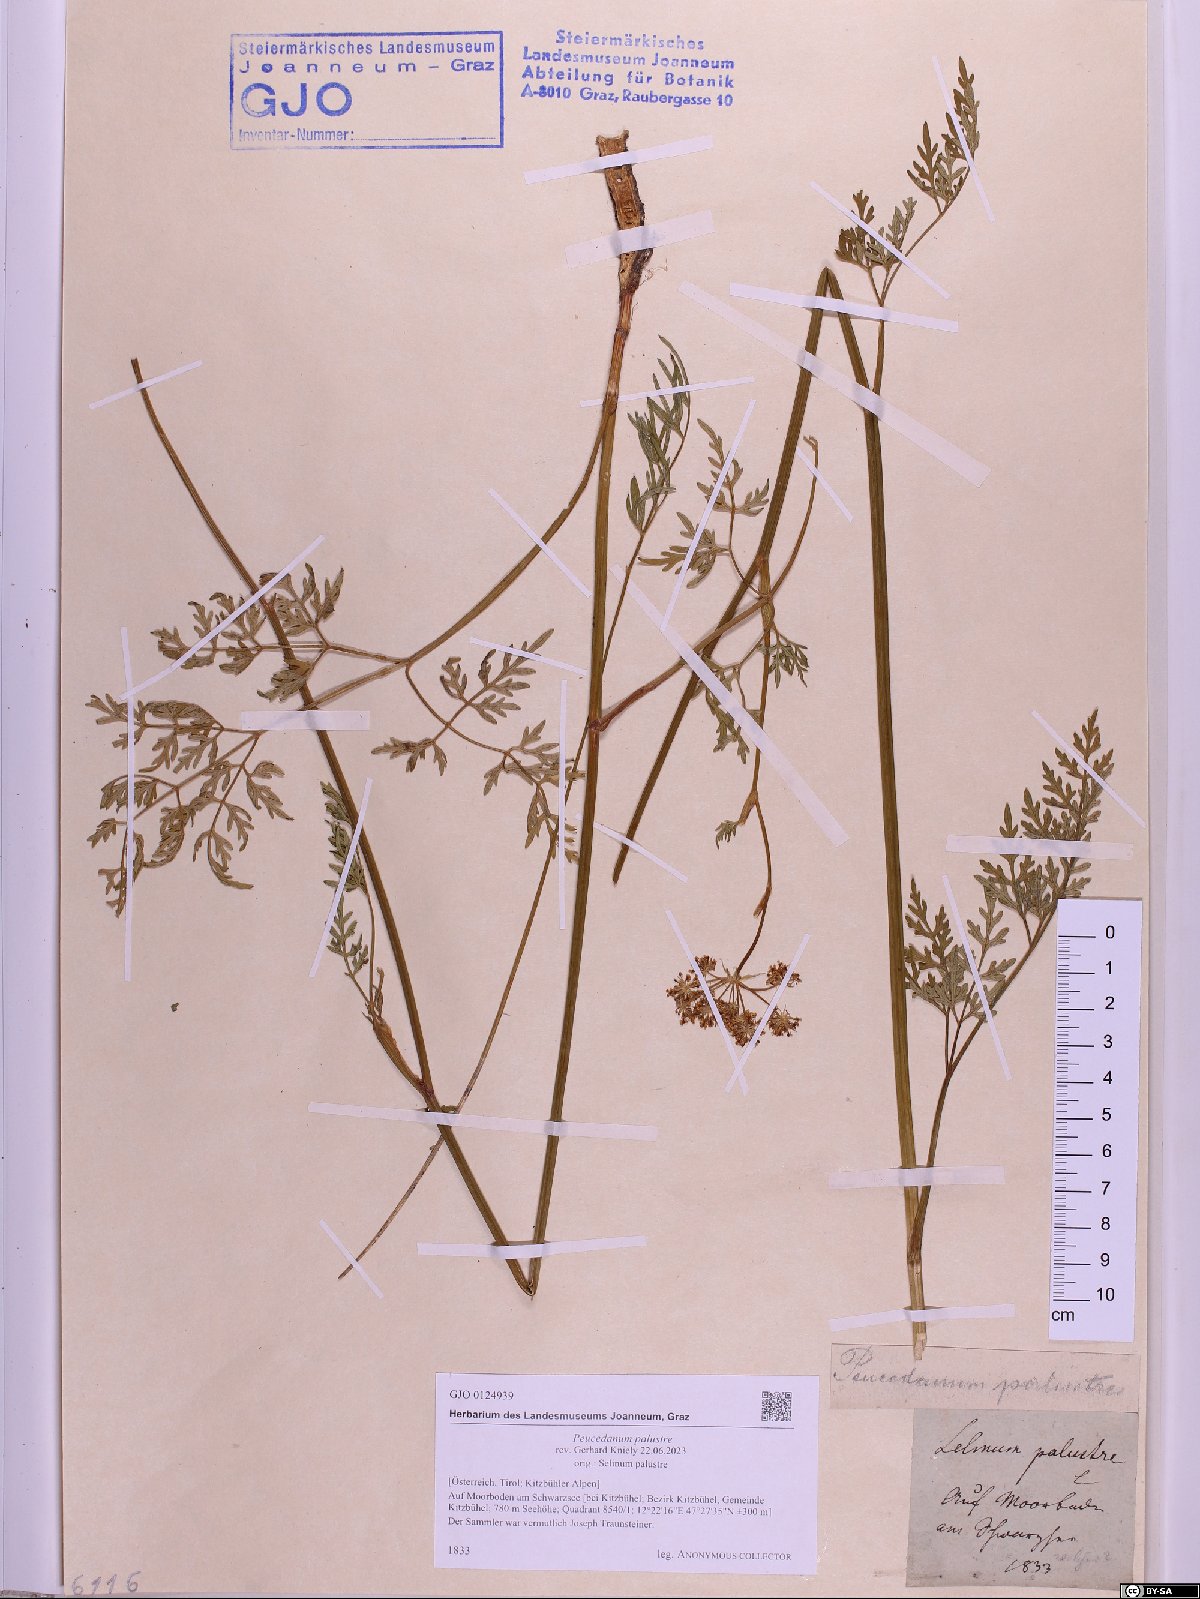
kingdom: Plantae
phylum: Tracheophyta
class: Magnoliopsida
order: Apiales
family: Apiaceae
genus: Thysselinum
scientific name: Thysselinum palustre
